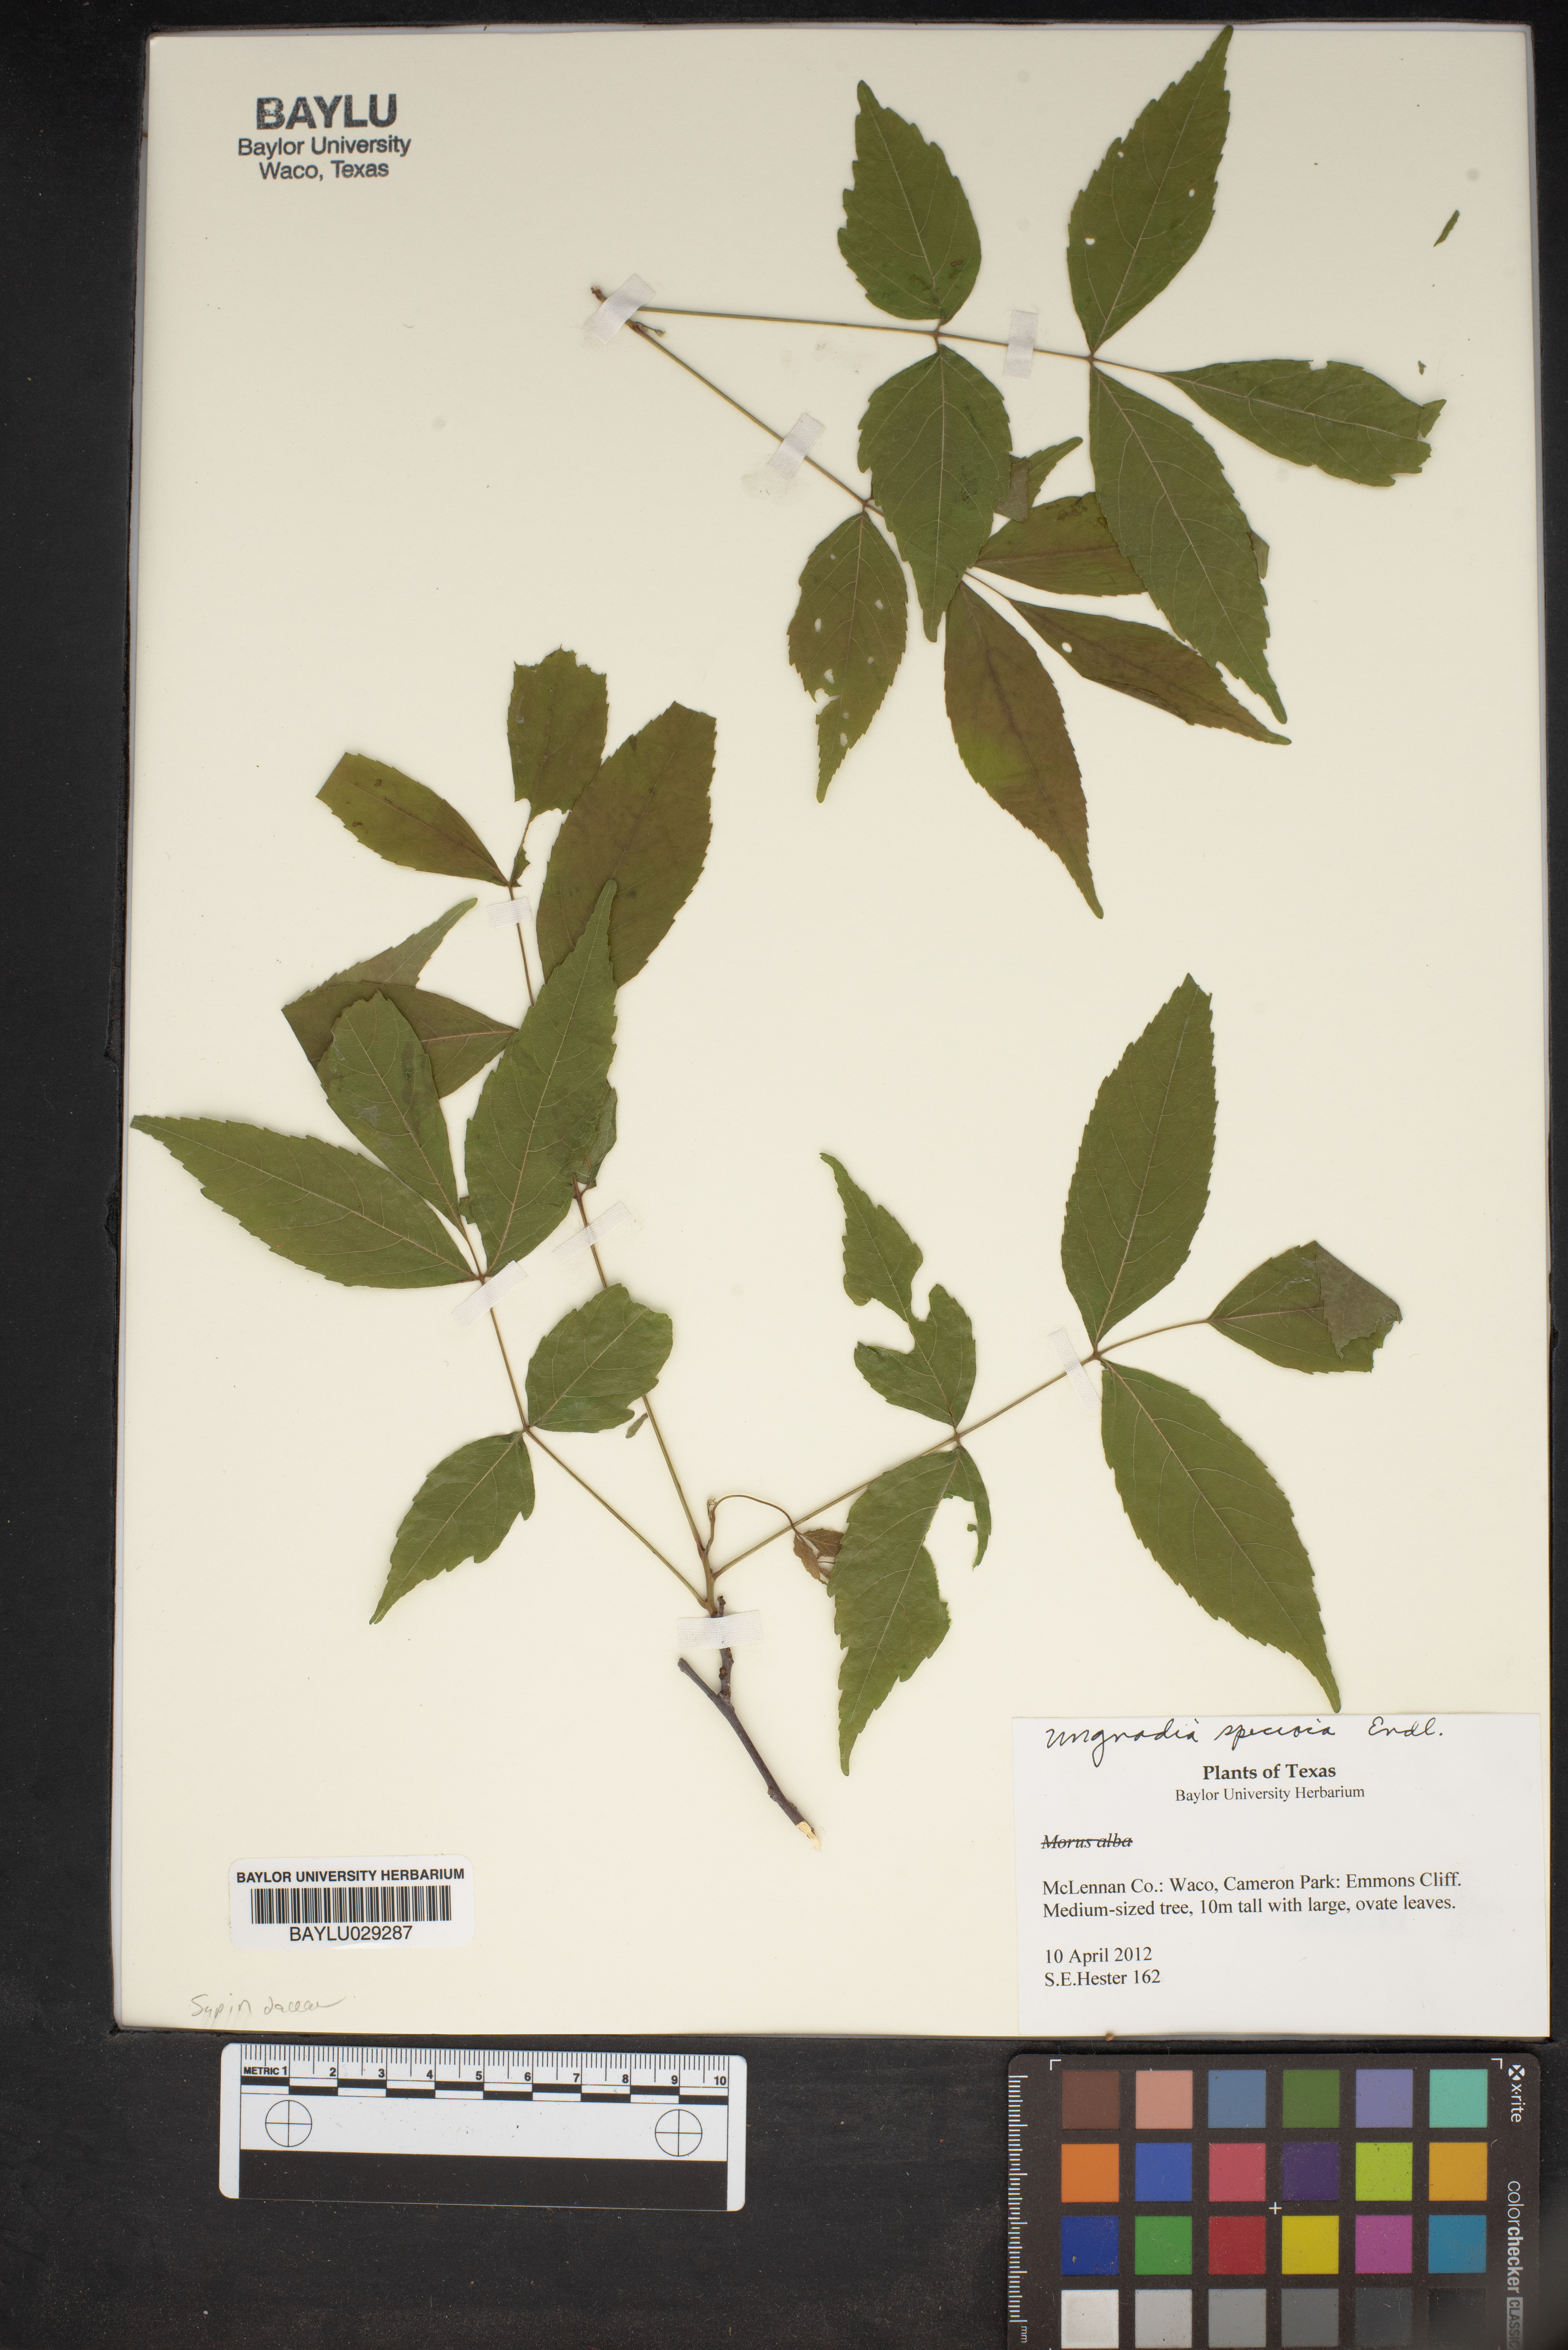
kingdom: Plantae
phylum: Tracheophyta
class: Magnoliopsida
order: Sapindales
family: Sapindaceae
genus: Ungnadia
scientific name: Ungnadia speciosa
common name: Texas-buckeye
